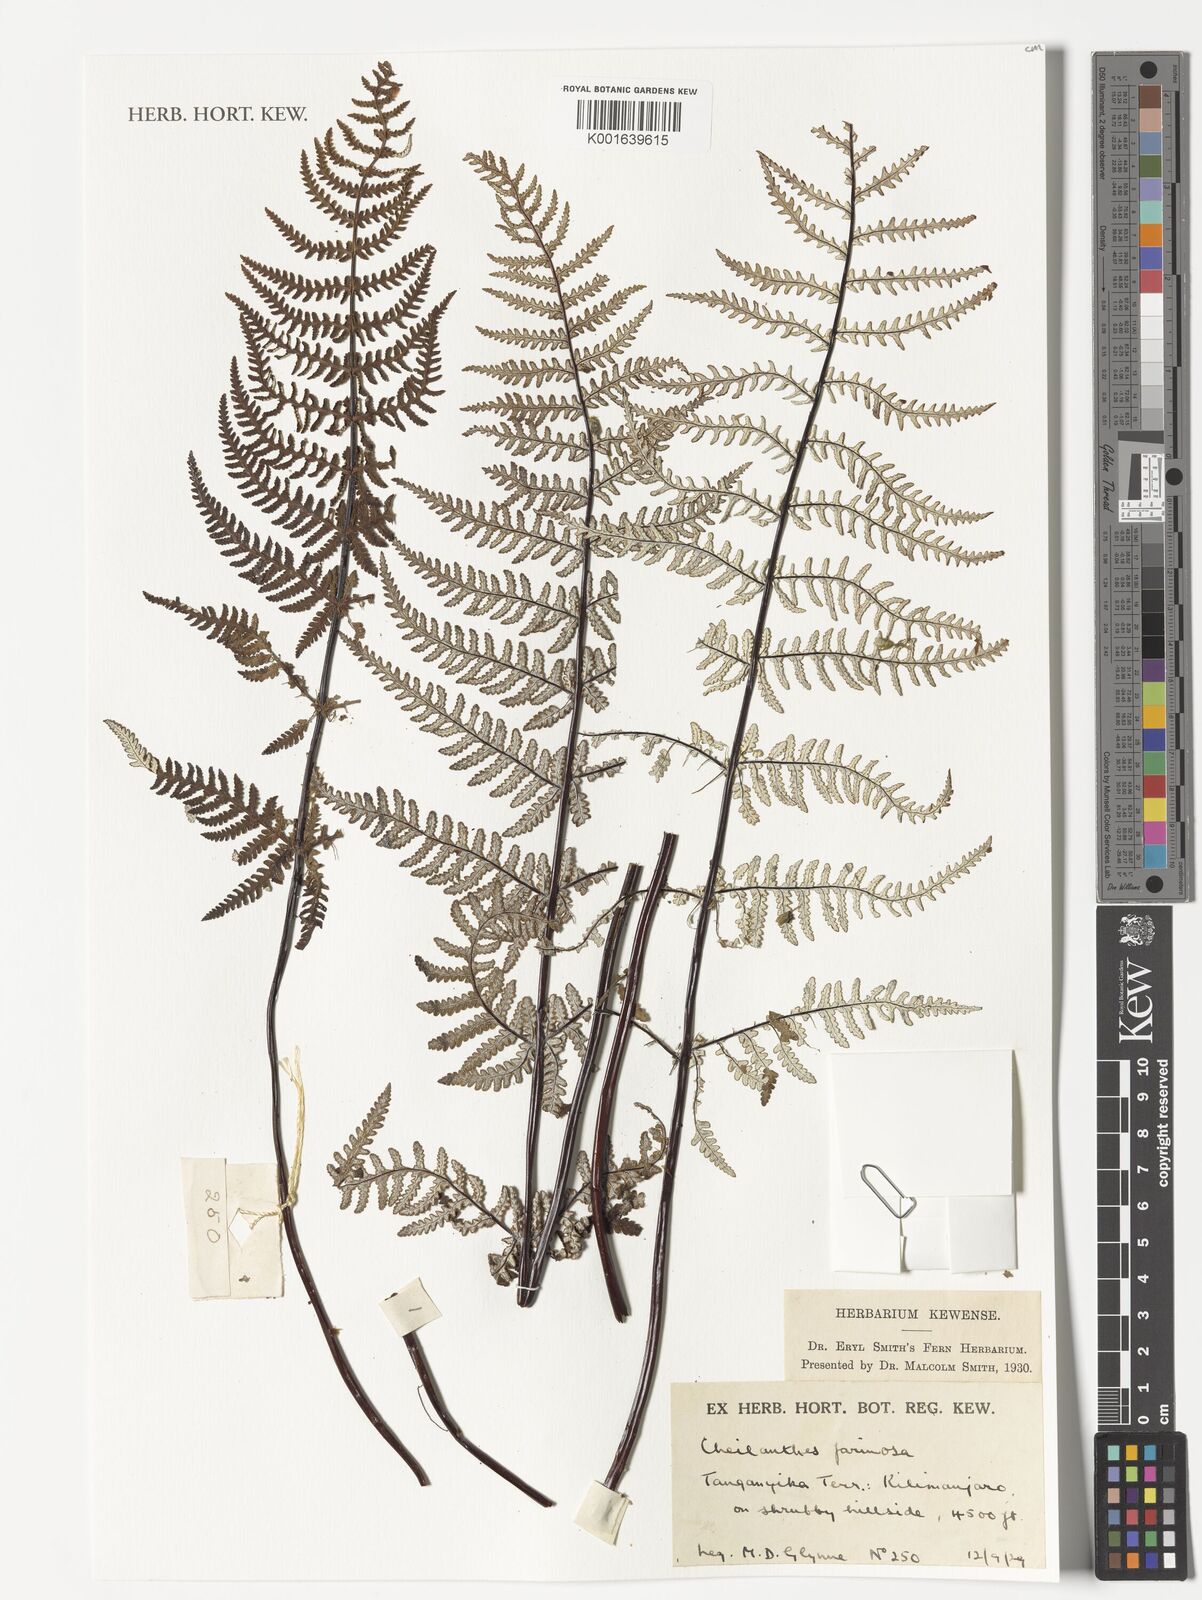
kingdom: Plantae
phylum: Tracheophyta
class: Polypodiopsida
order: Polypodiales
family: Pteridaceae
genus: Aleuritopteris
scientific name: Aleuritopteris farinosa
